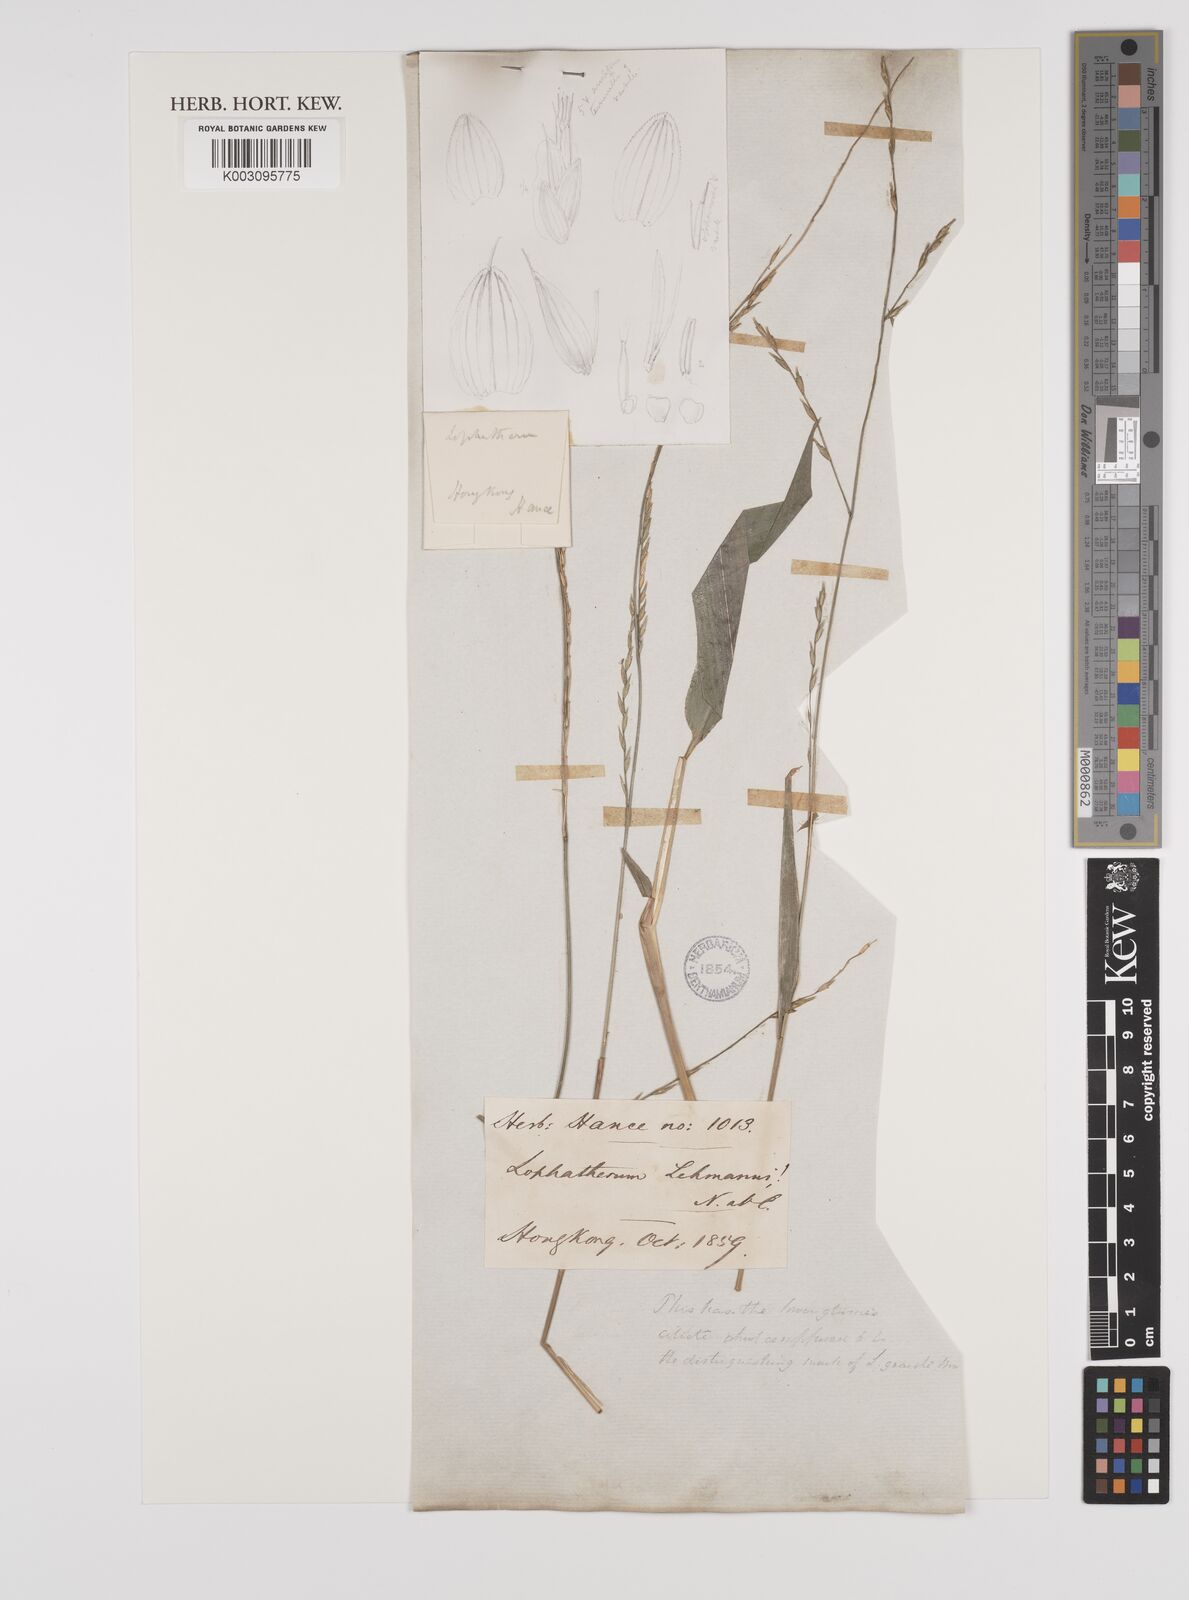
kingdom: Plantae
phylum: Tracheophyta
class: Liliopsida
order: Poales
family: Poaceae
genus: Lophatherum
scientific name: Lophatherum gracile
